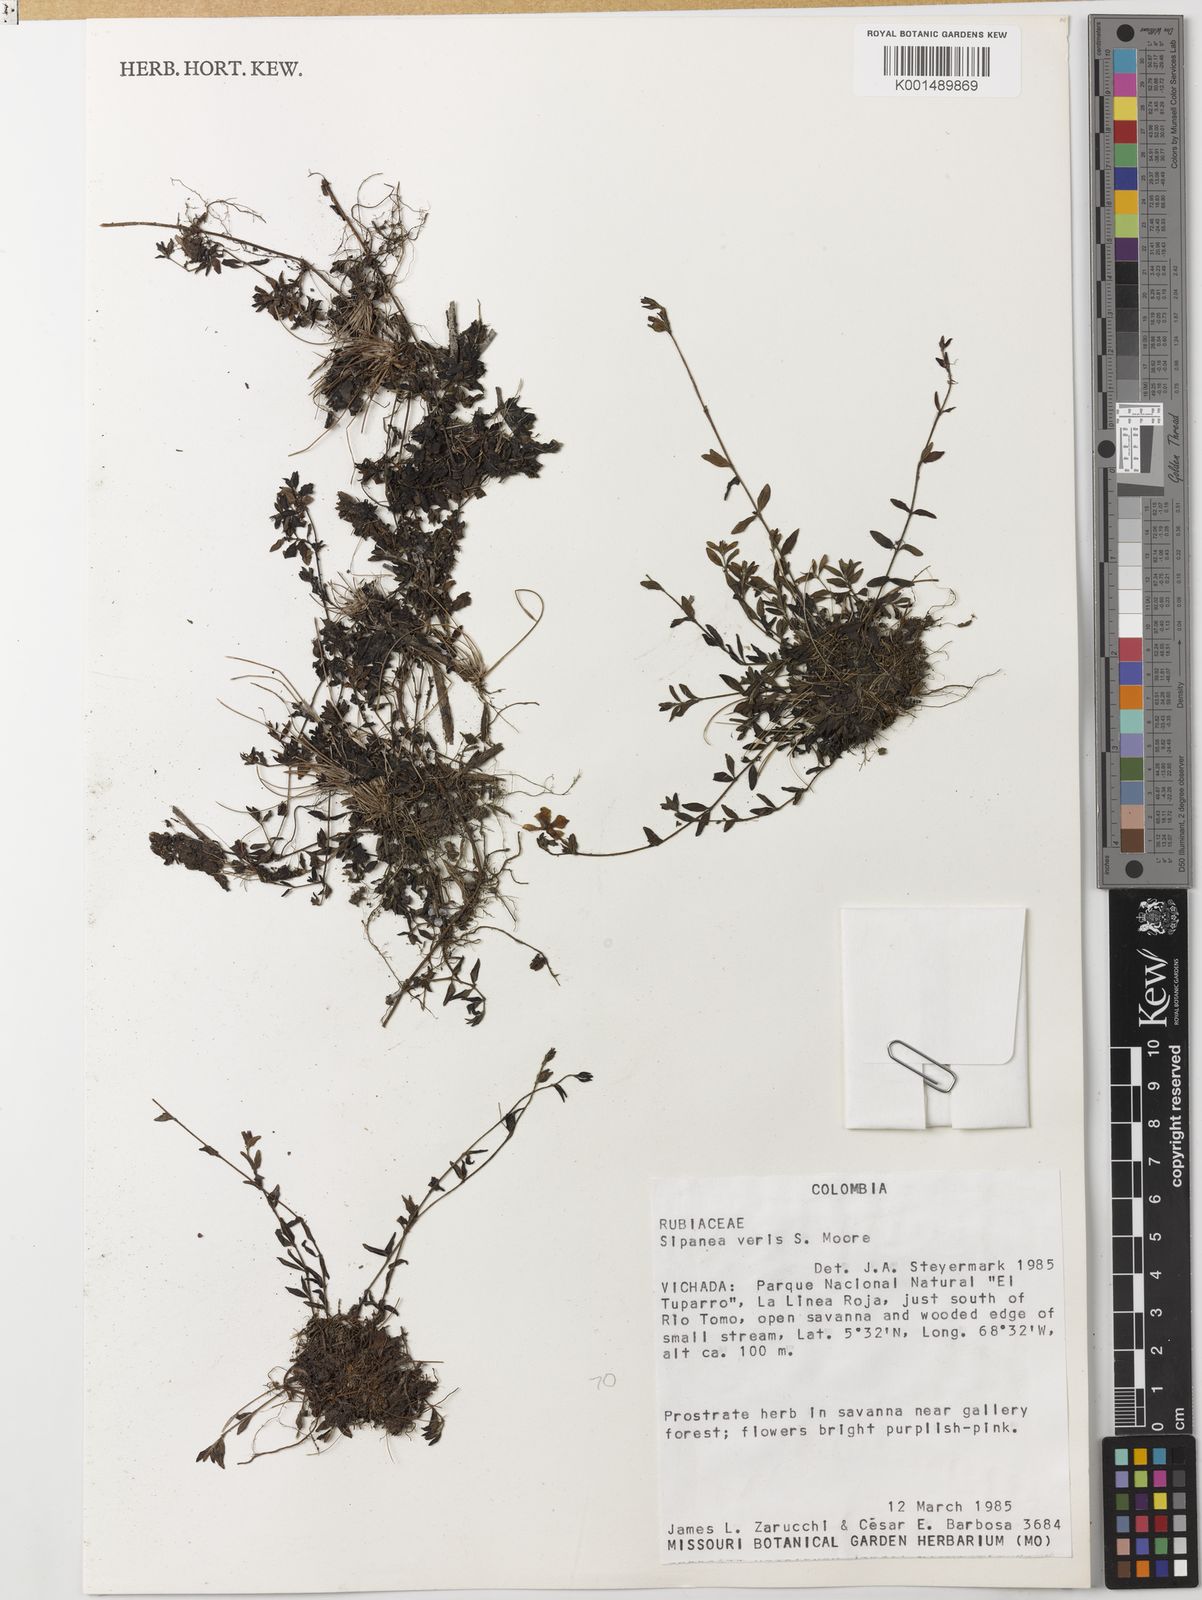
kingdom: Plantae
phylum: Tracheophyta
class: Magnoliopsida
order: Gentianales
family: Rubiaceae
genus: Sipanea
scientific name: Sipanea veris
